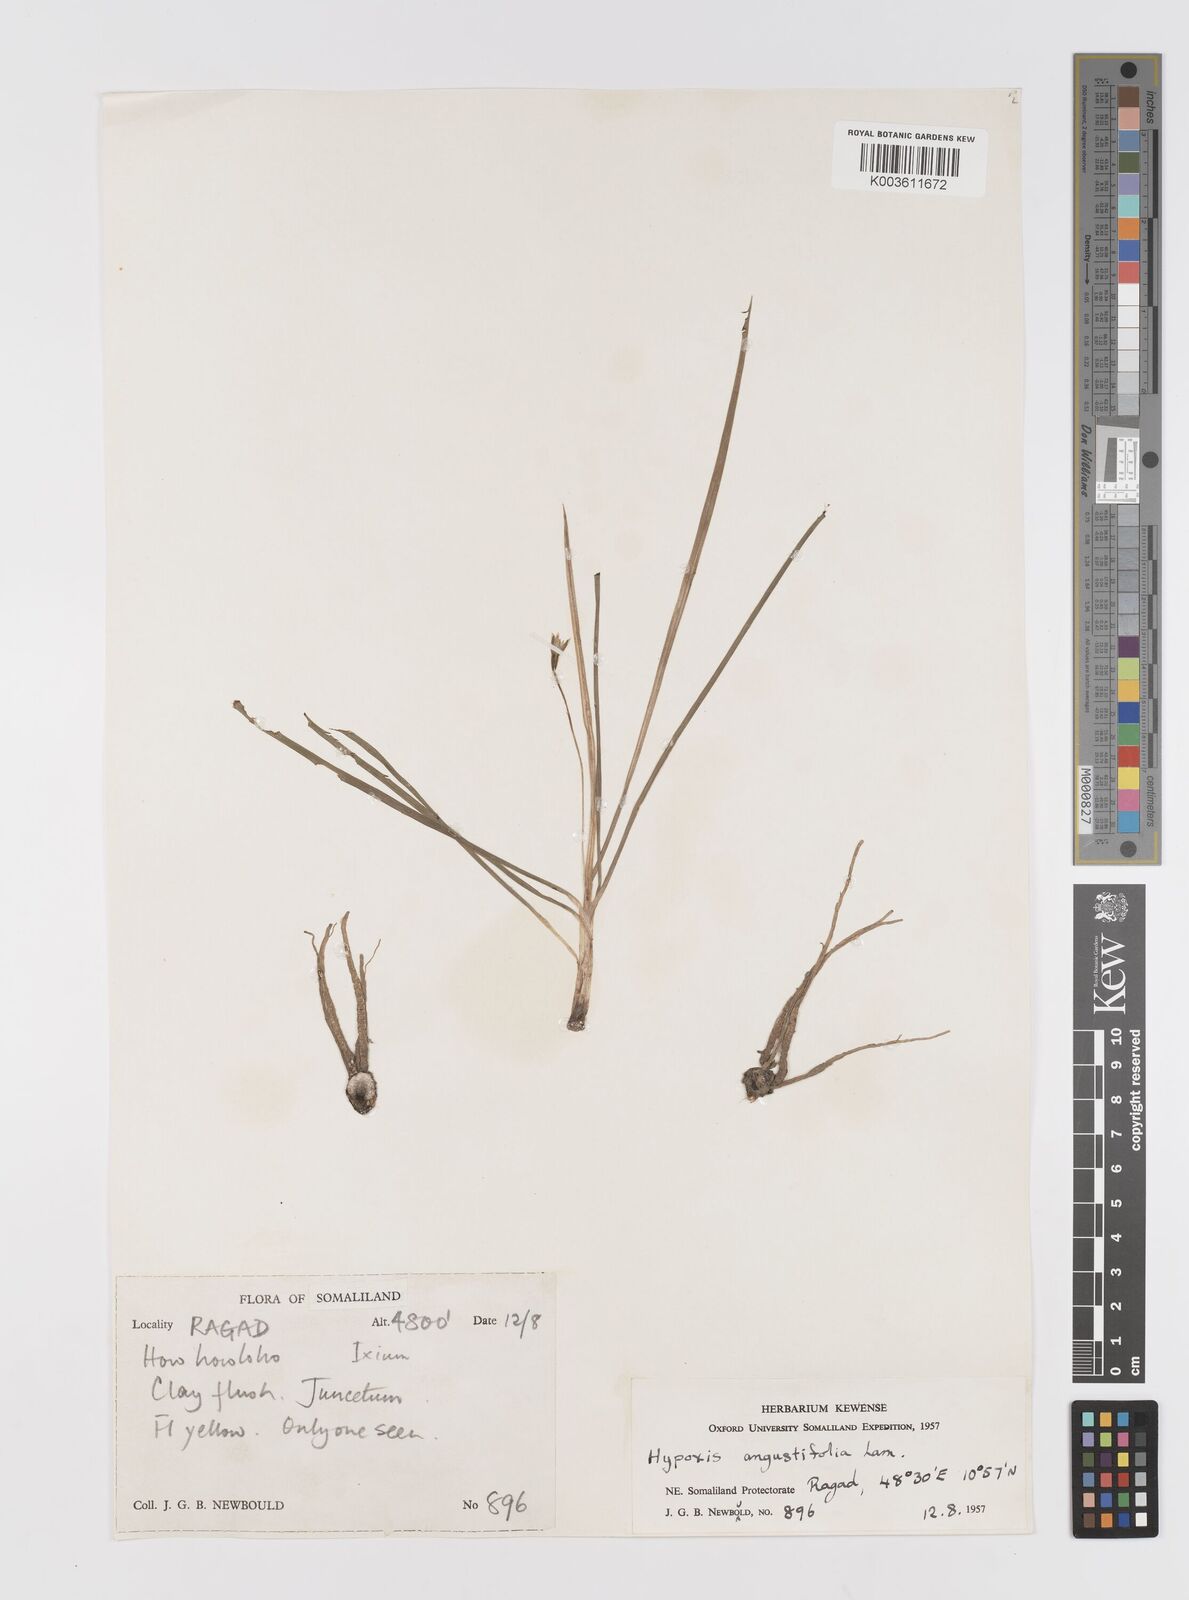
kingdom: Plantae
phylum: Tracheophyta
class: Liliopsida
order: Asparagales
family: Hypoxidaceae
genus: Hypoxis
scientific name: Hypoxis angustifolia
